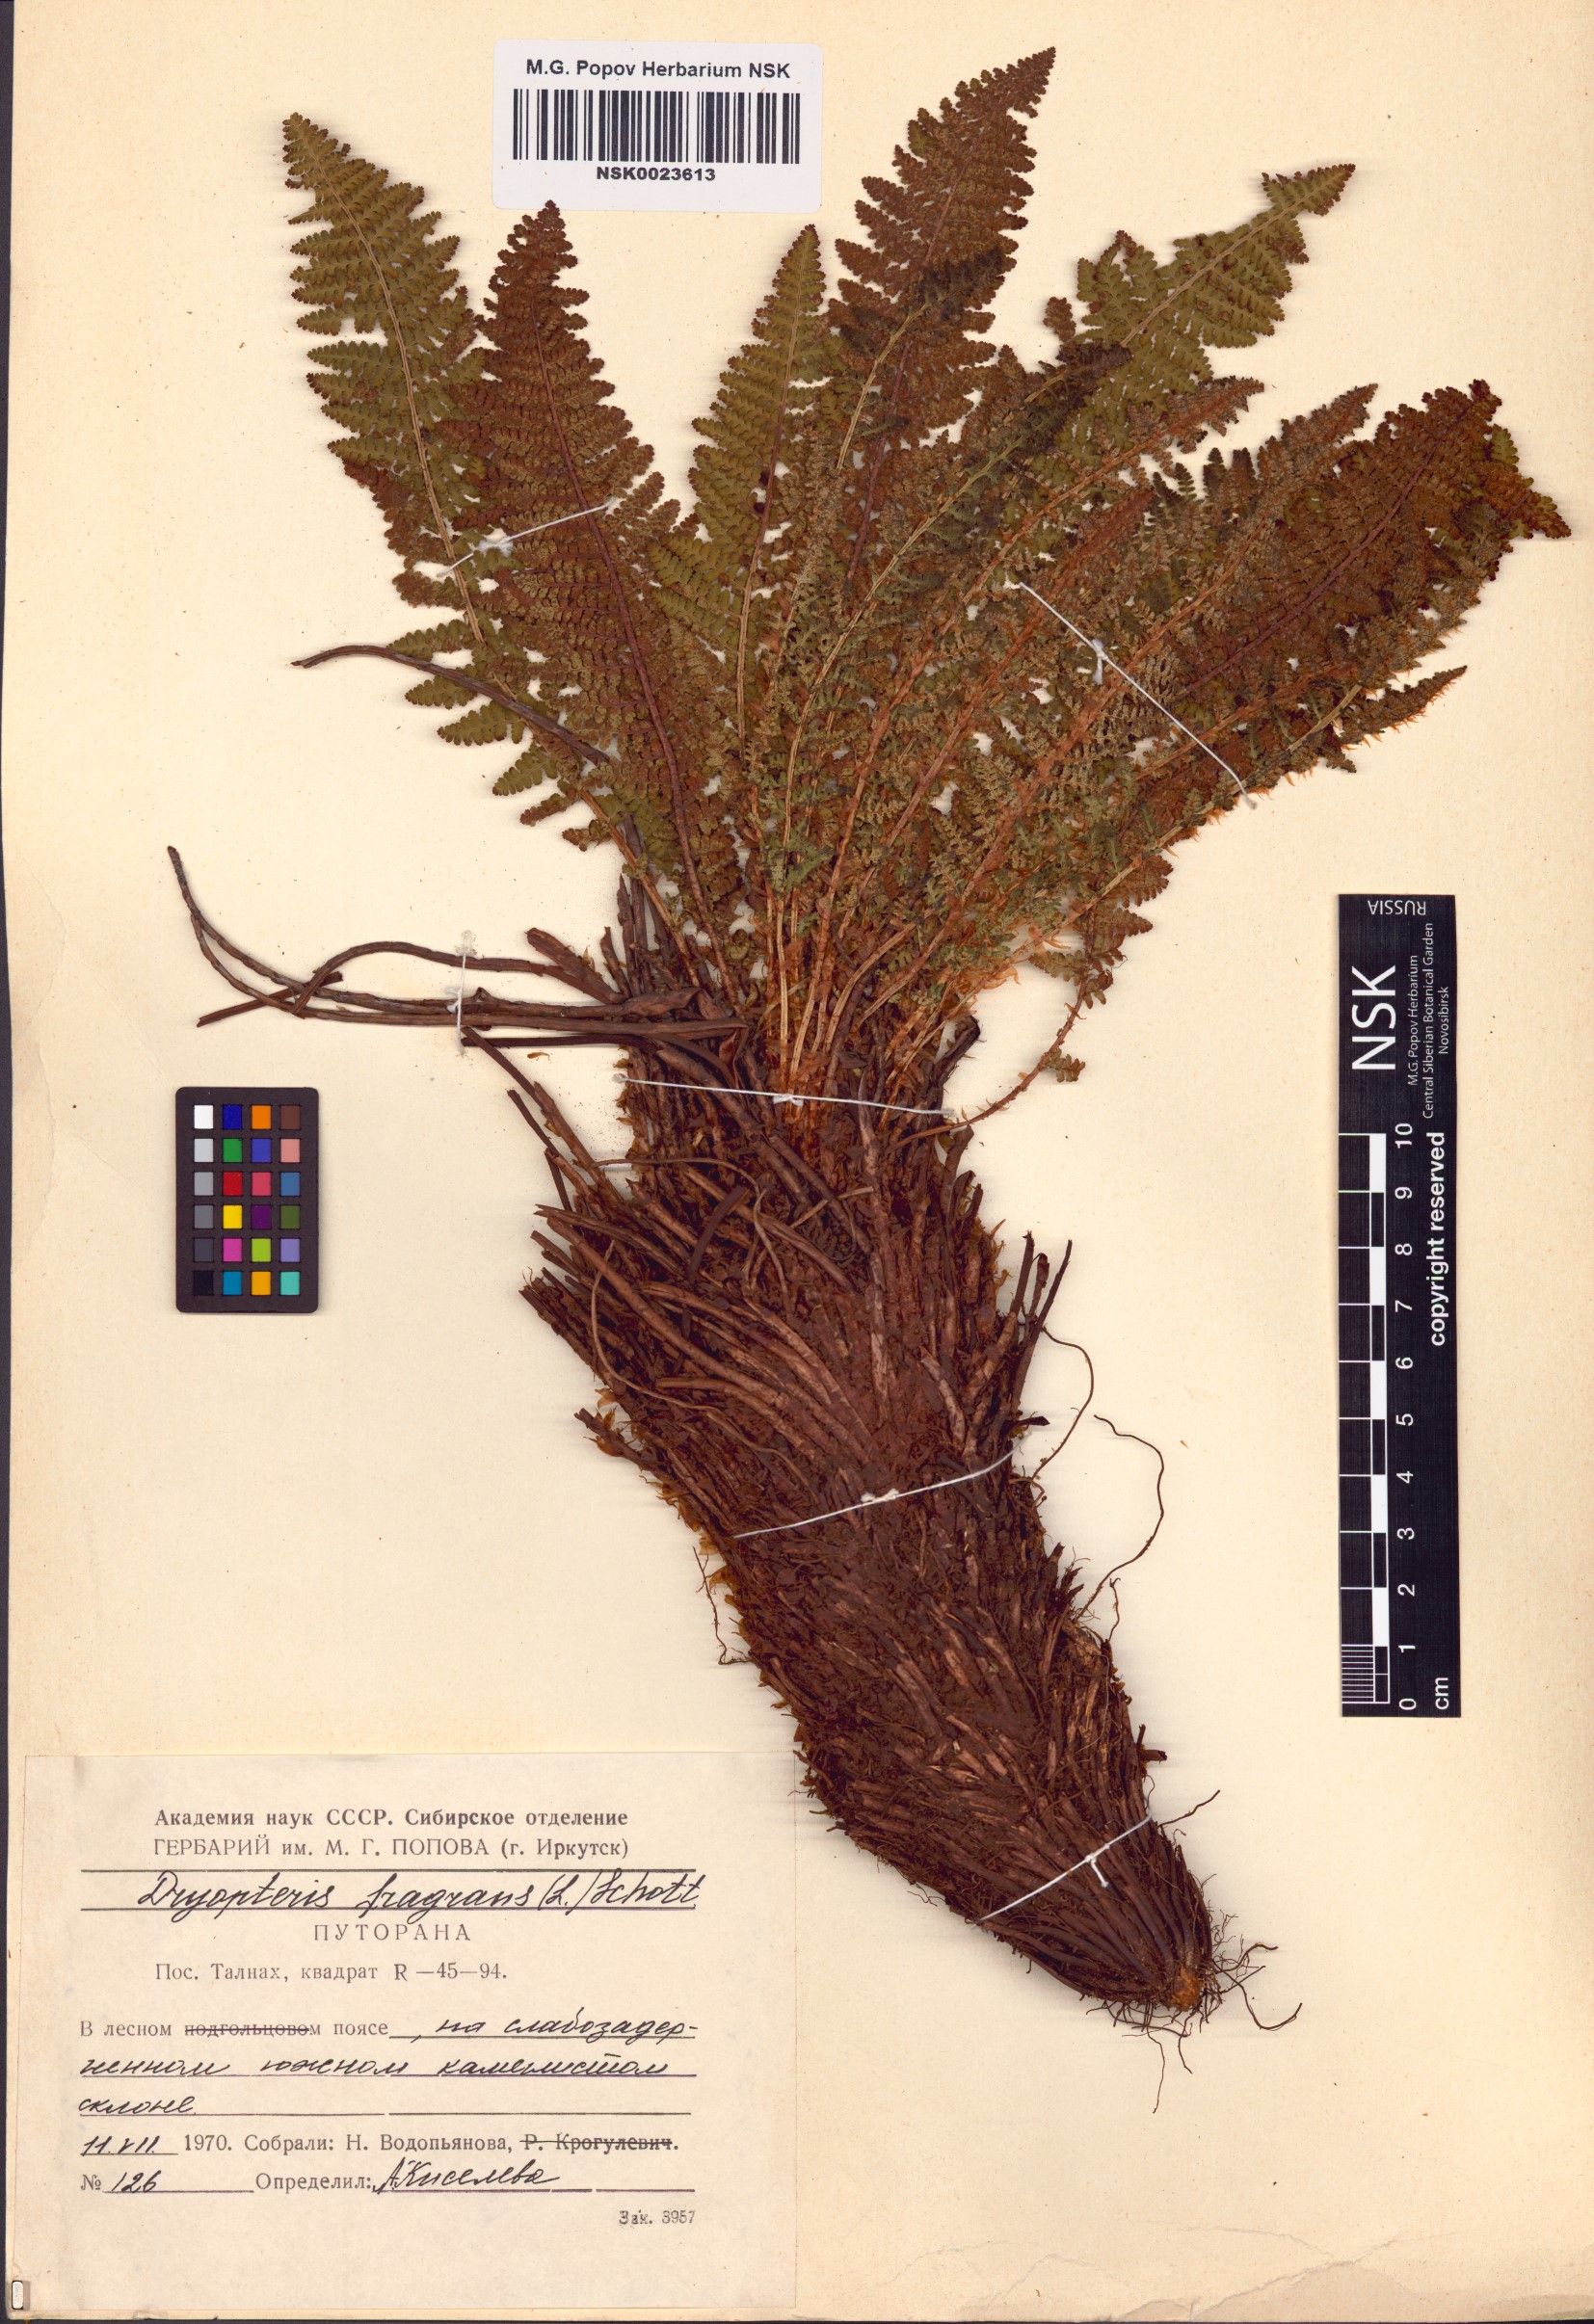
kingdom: Plantae
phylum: Tracheophyta
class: Polypodiopsida
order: Polypodiales
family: Dryopteridaceae
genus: Dryopteris
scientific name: Dryopteris fragrans
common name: Fragrant wood fern
